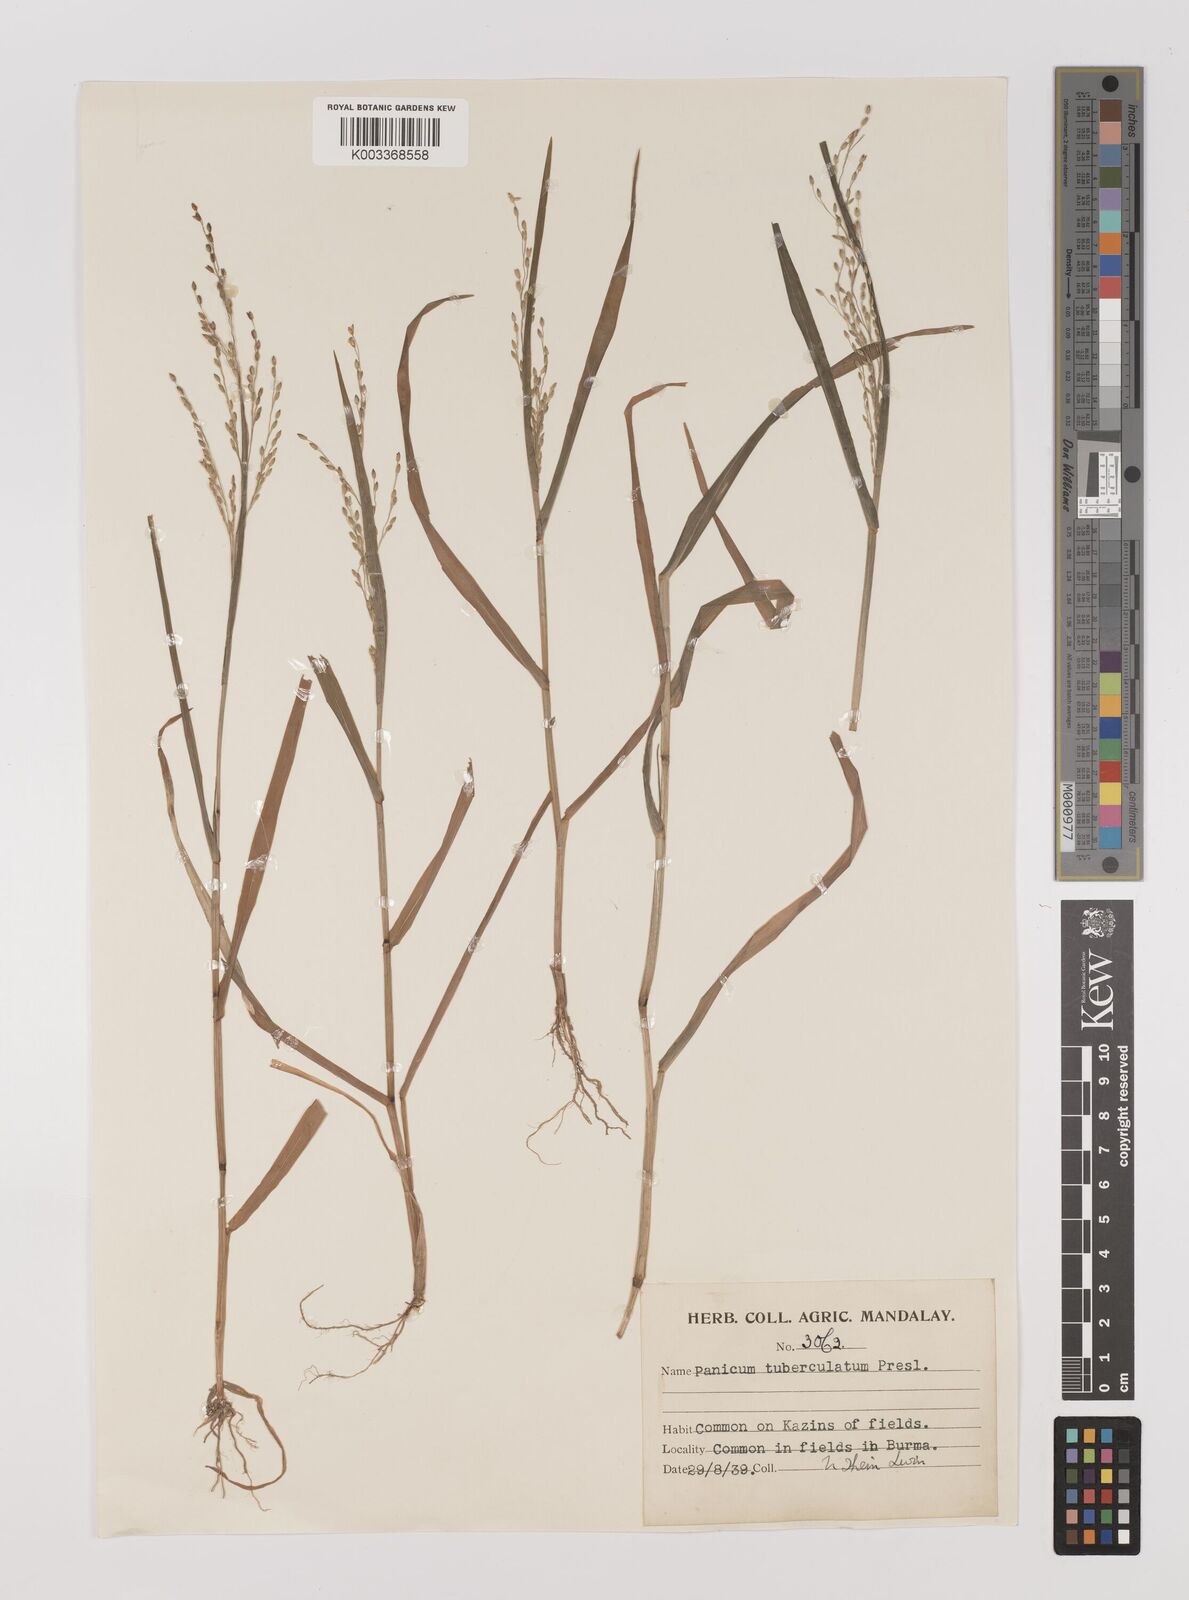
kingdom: Plantae
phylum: Tracheophyta
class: Liliopsida
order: Poales
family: Poaceae
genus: Panicum
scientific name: Panicum sumatrense
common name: Little millet
